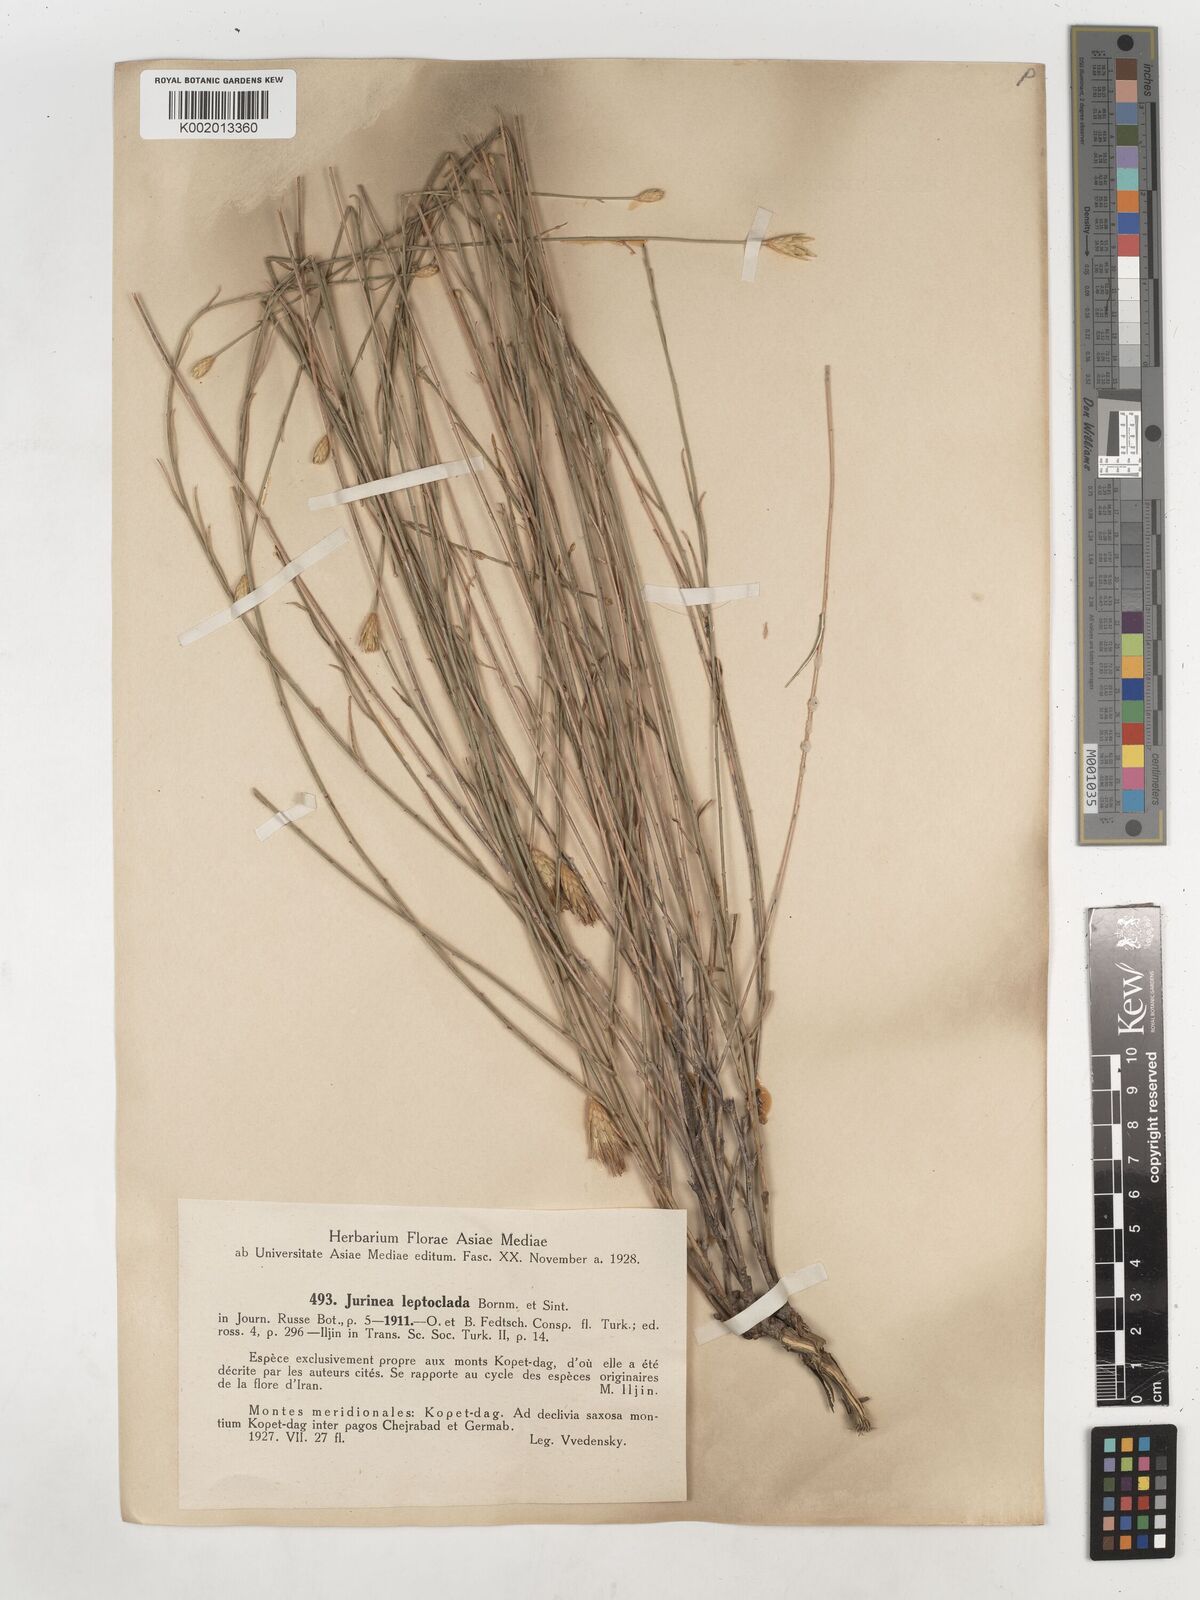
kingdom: Plantae
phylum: Tracheophyta
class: Magnoliopsida
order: Asterales
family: Asteraceae
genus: Klasea
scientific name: Klasea leptoclada
